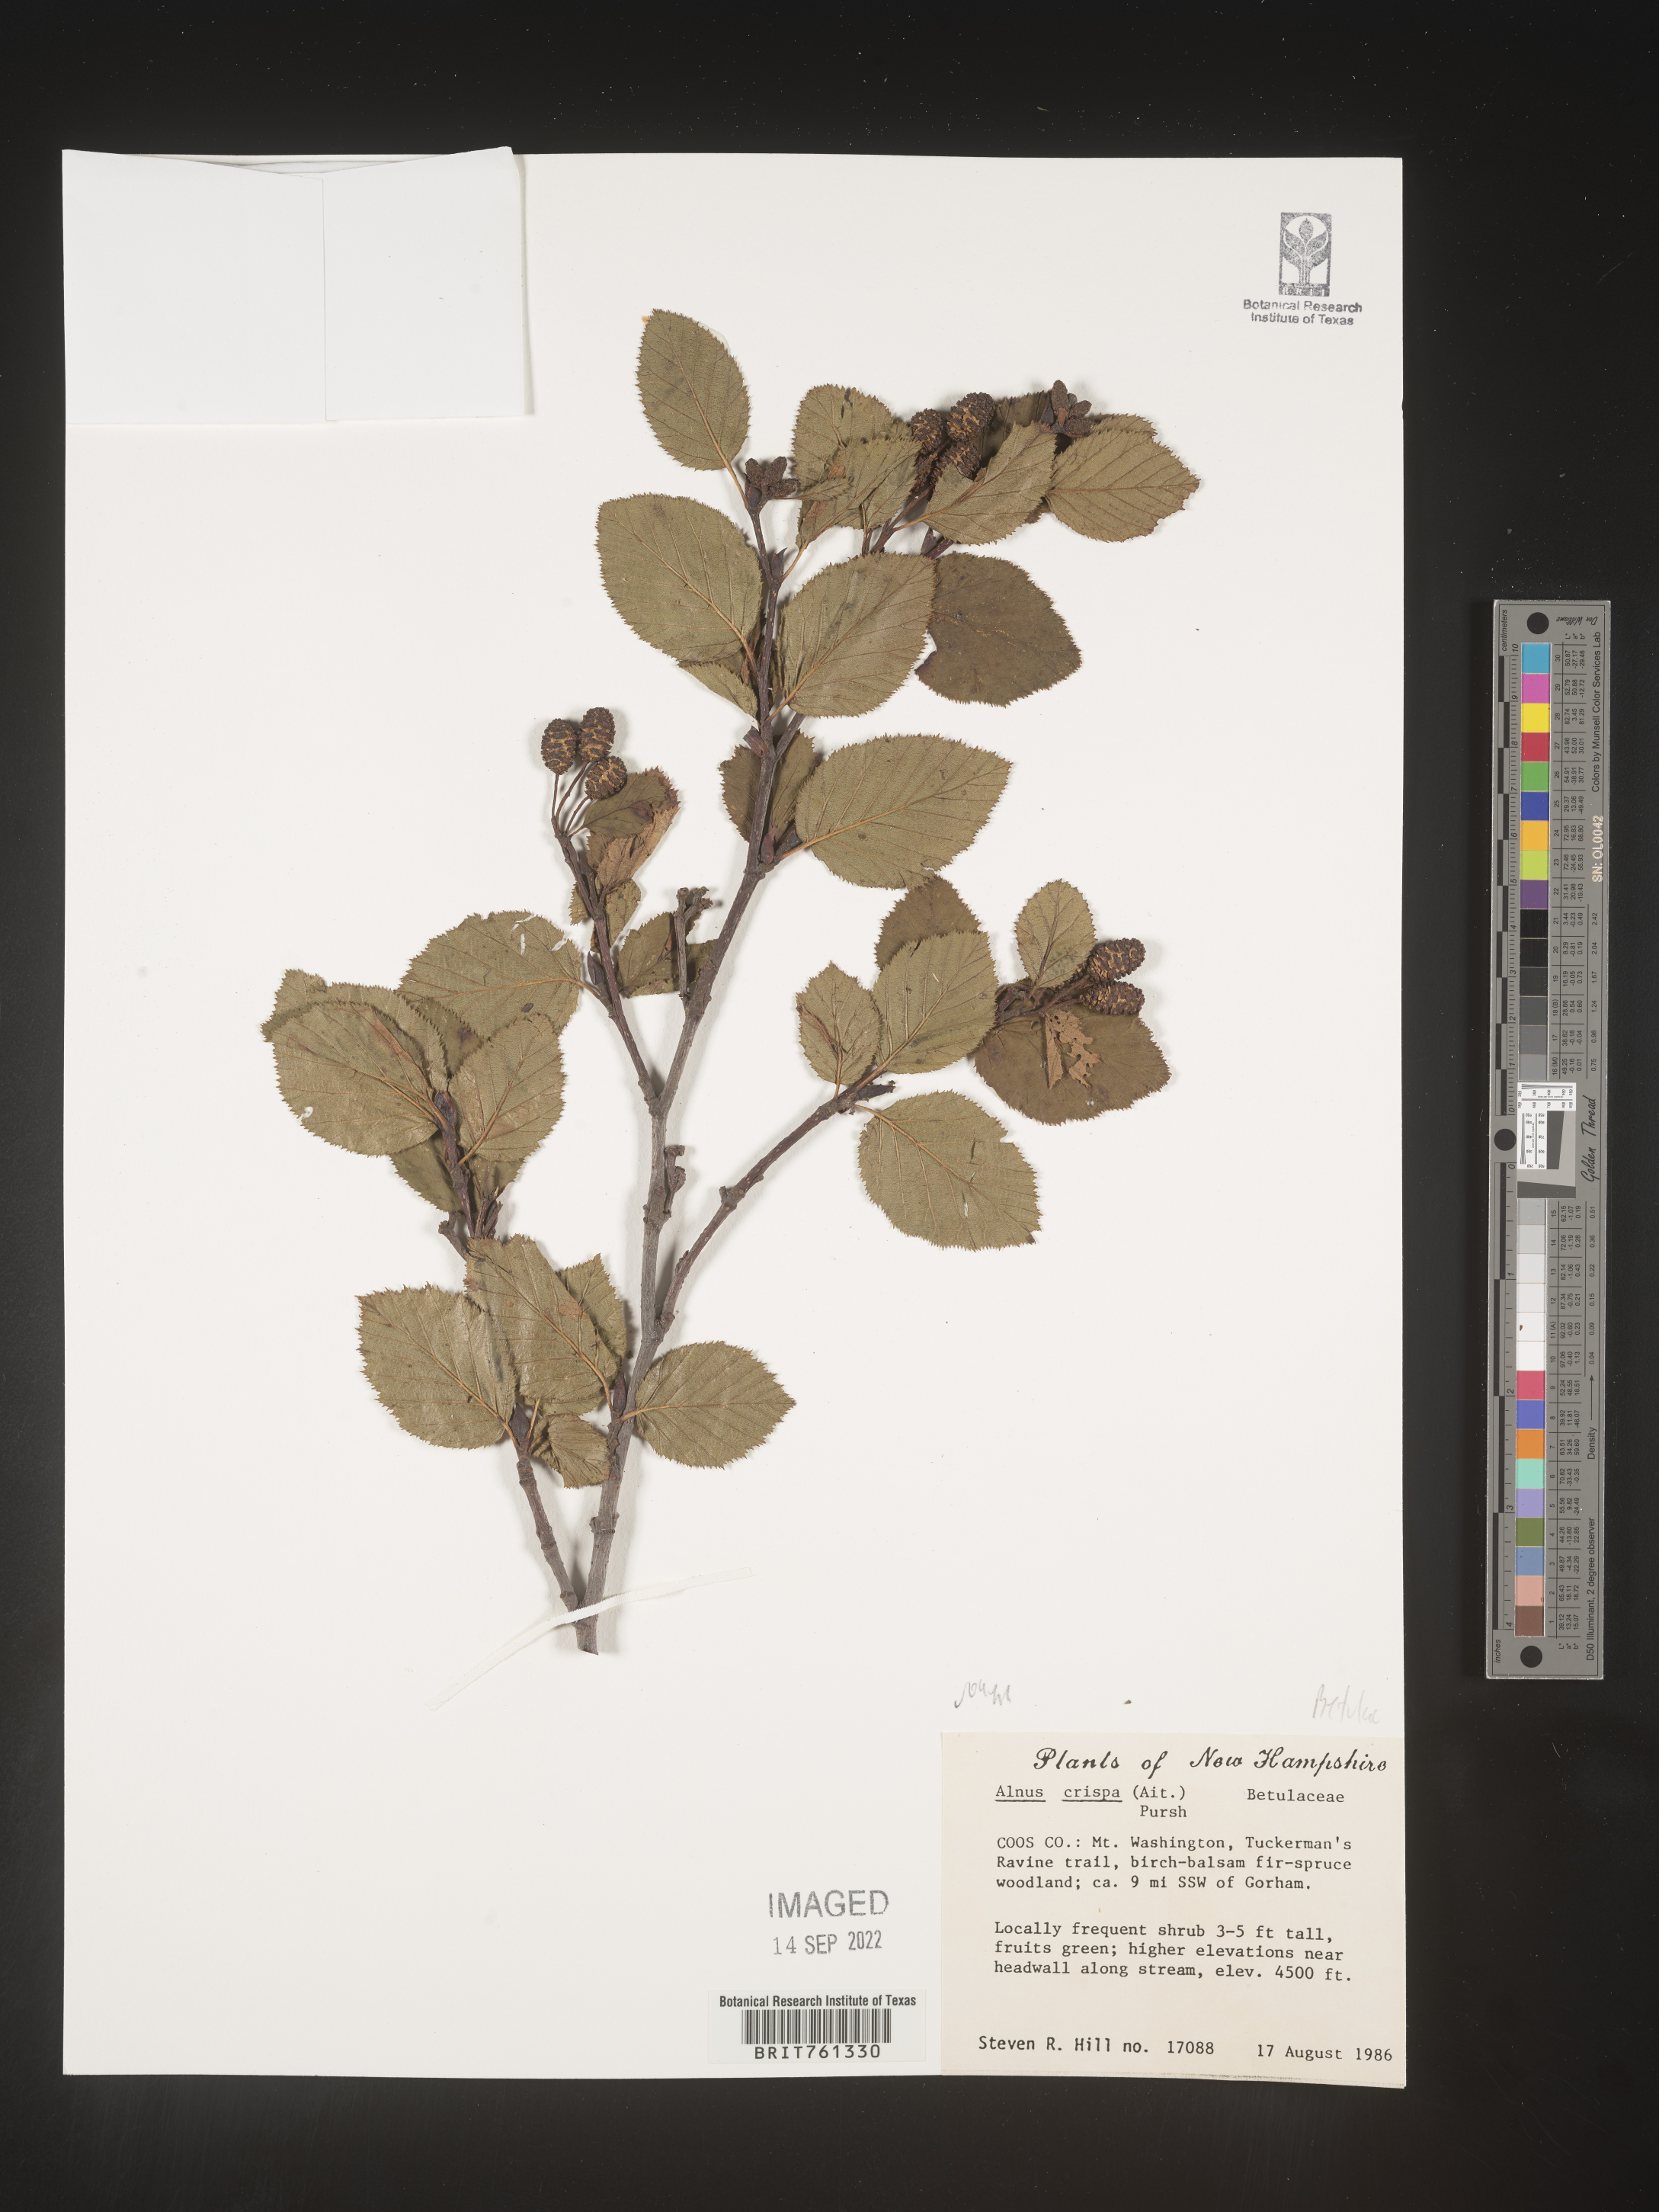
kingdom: Plantae
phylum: Tracheophyta
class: Magnoliopsida
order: Fagales
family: Betulaceae
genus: Alnus
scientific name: Alnus
